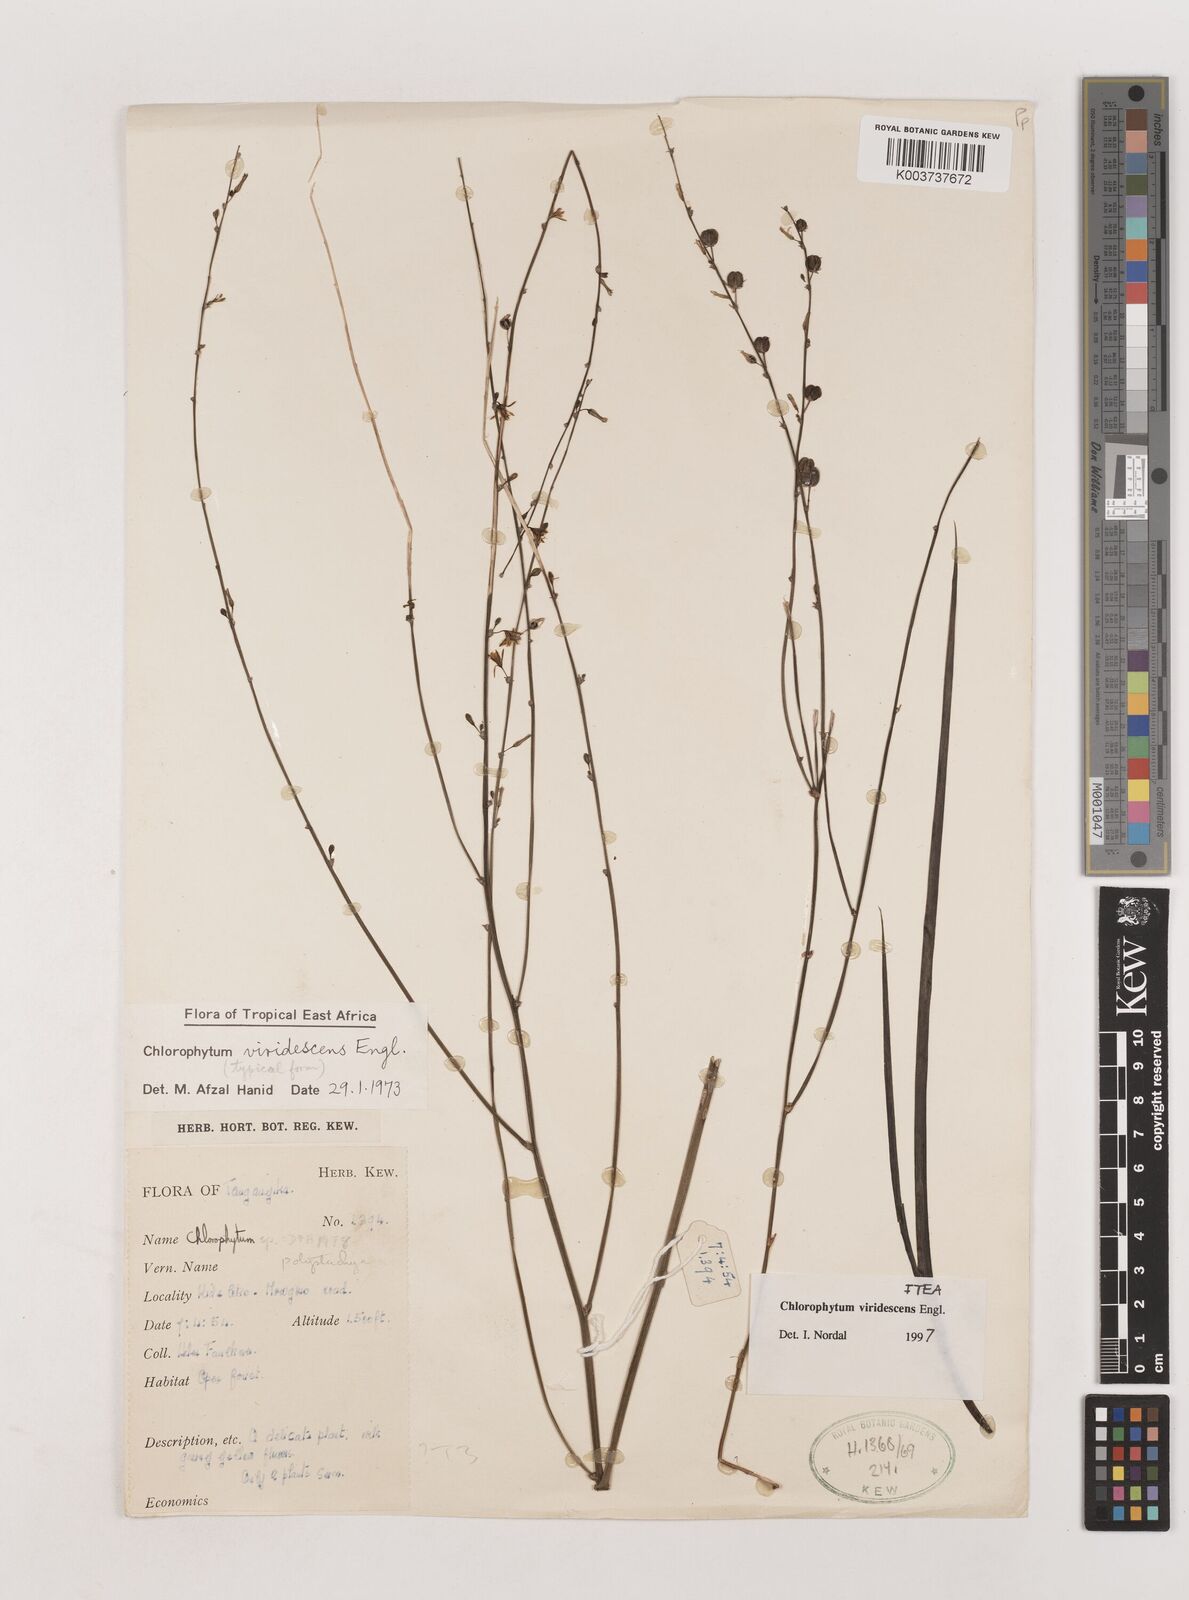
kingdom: Plantae
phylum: Tracheophyta
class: Liliopsida
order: Asparagales
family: Asparagaceae
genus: Chlorophytum
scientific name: Chlorophytum viridescens
